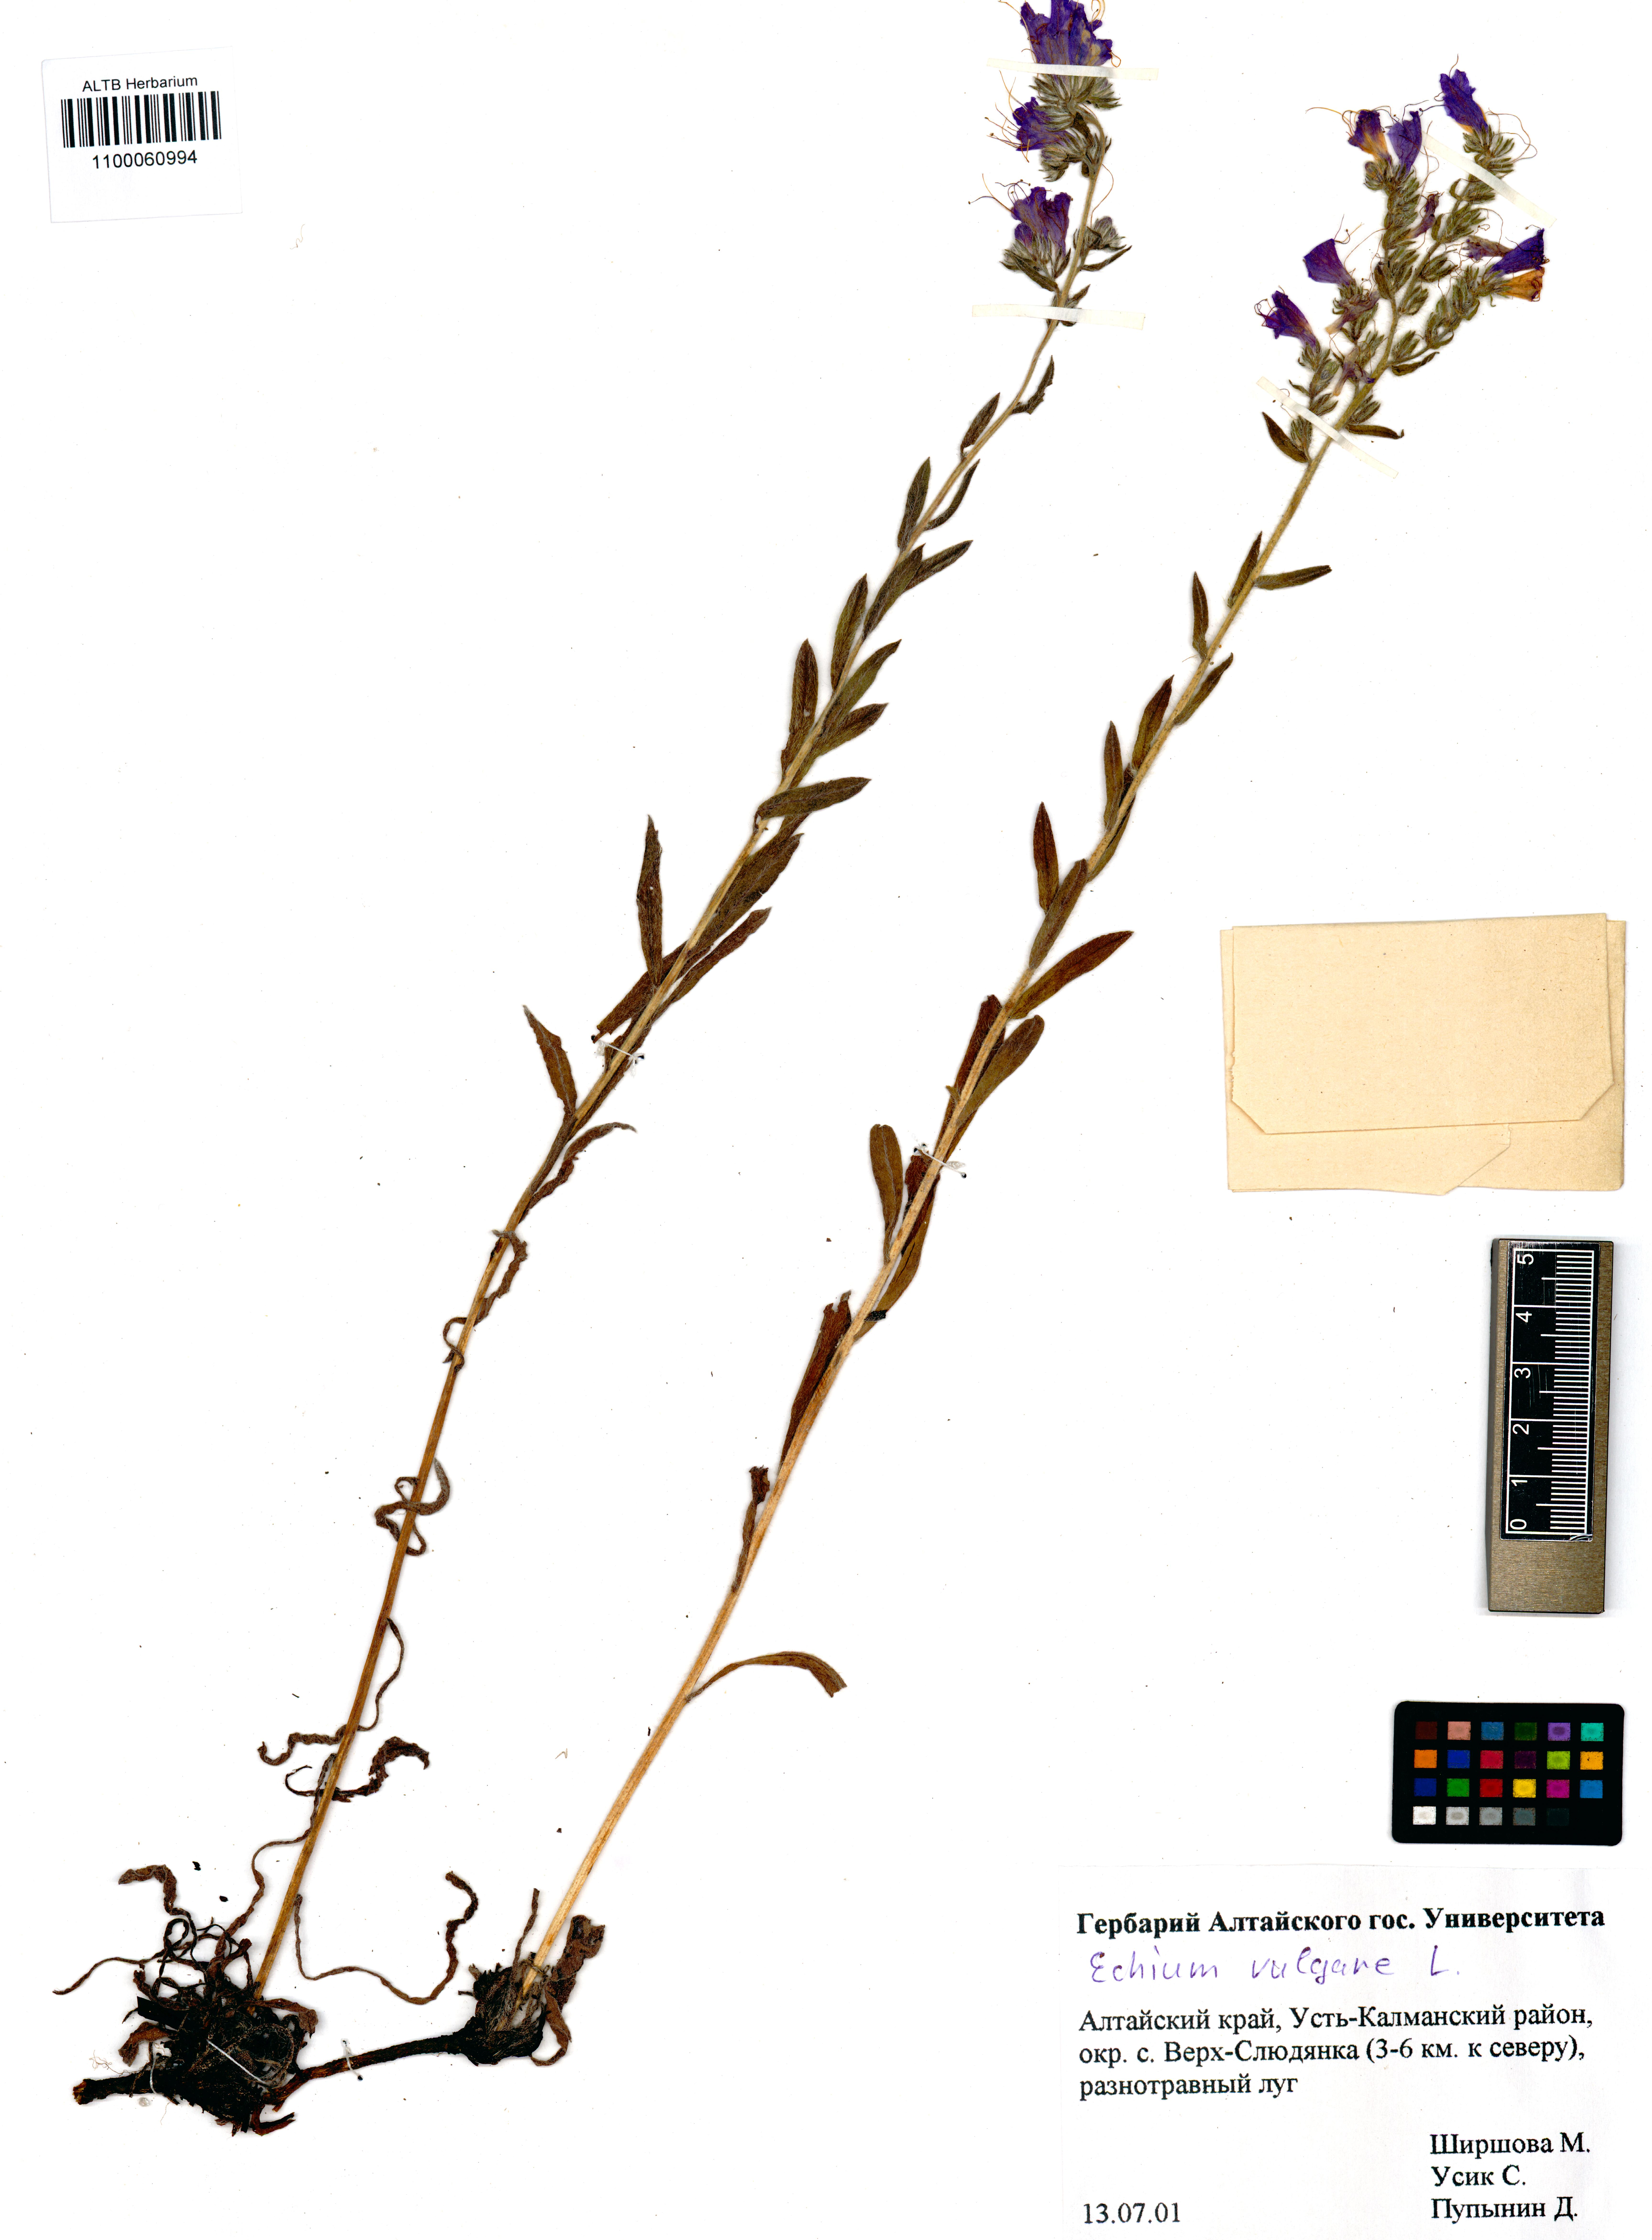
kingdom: Plantae
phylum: Tracheophyta
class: Magnoliopsida
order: Boraginales
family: Boraginaceae
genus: Echium
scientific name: Echium vulgare
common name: Common viper's bugloss
